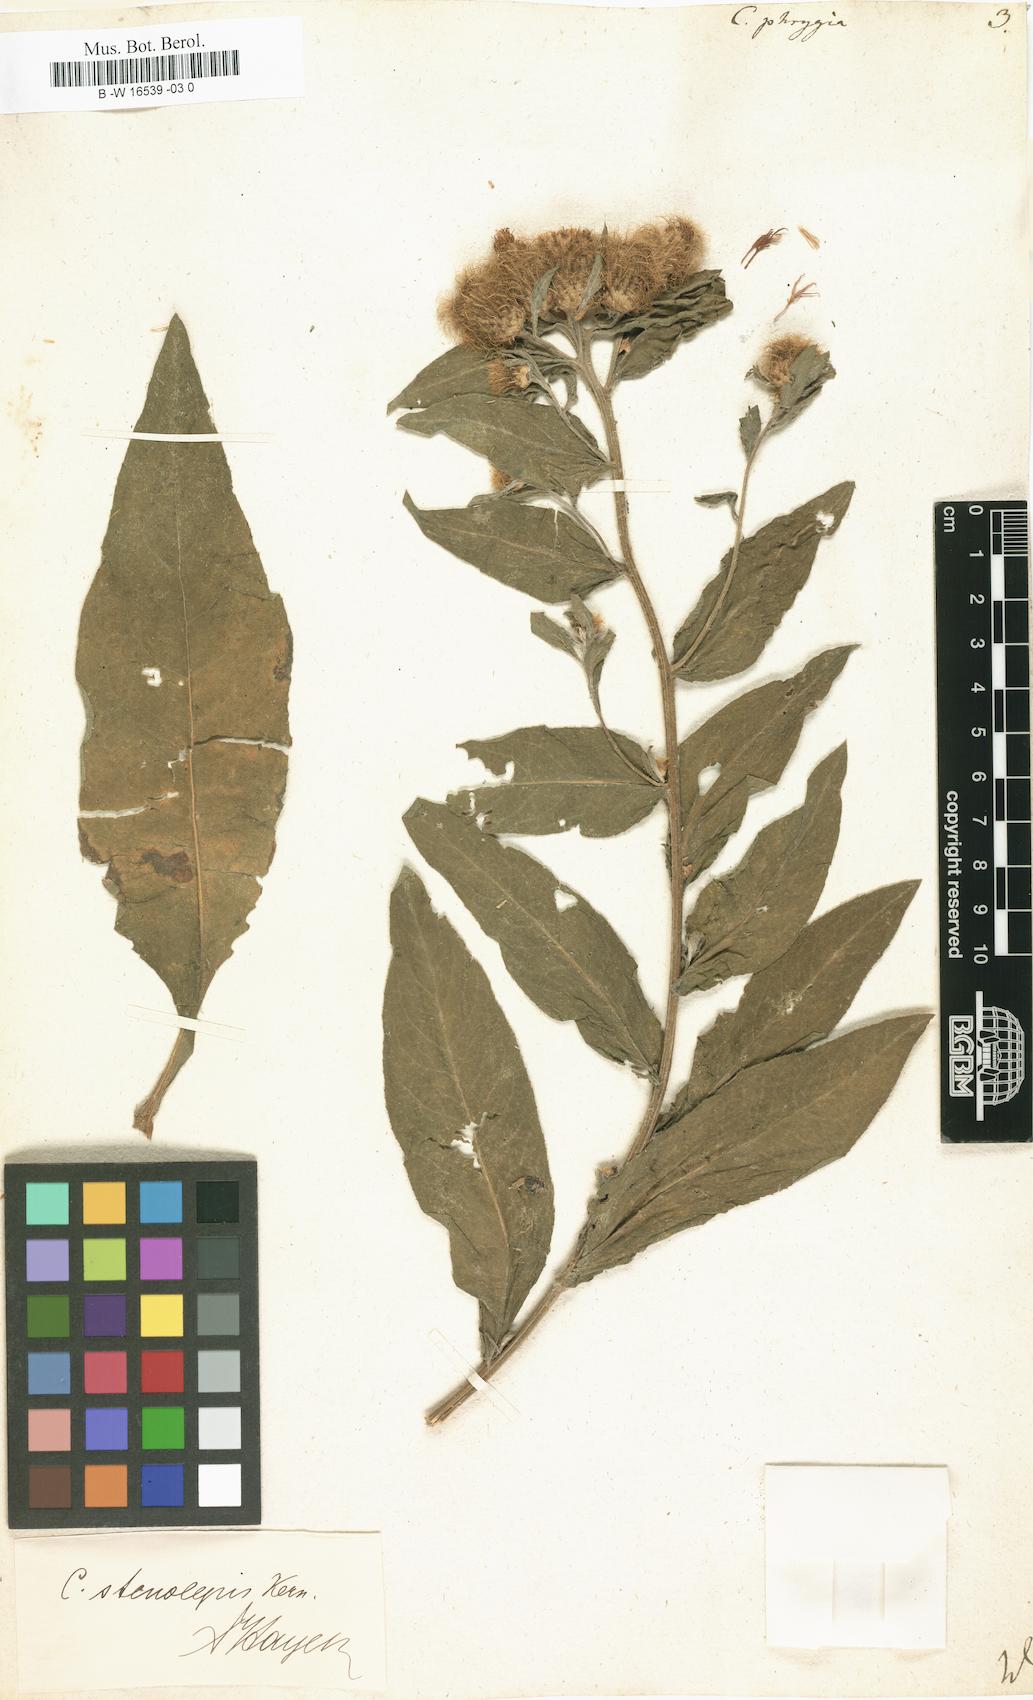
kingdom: Plantae
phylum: Tracheophyta
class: Magnoliopsida
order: Asterales
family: Asteraceae
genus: Centaurea
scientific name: Centaurea phrygia
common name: Wig knapweed
